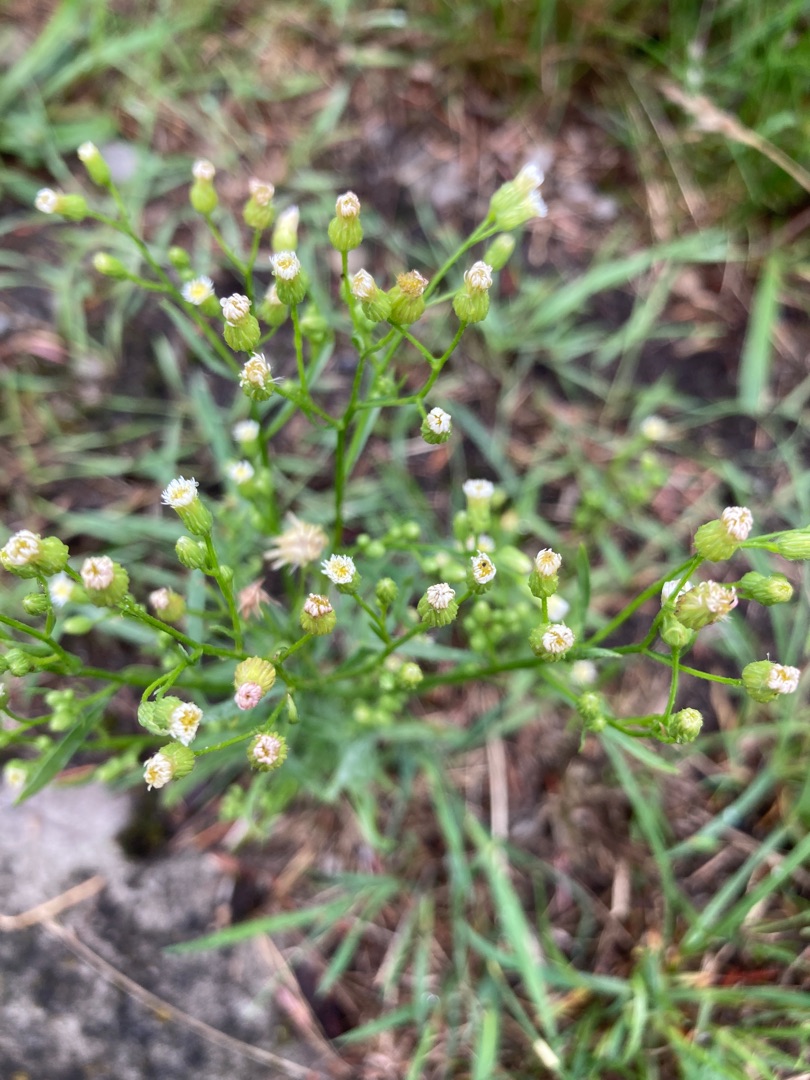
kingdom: Plantae
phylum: Tracheophyta
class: Magnoliopsida
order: Asterales
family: Asteraceae
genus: Erigeron
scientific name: Erigeron canadensis
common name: Kanadisk bakkestjerne
